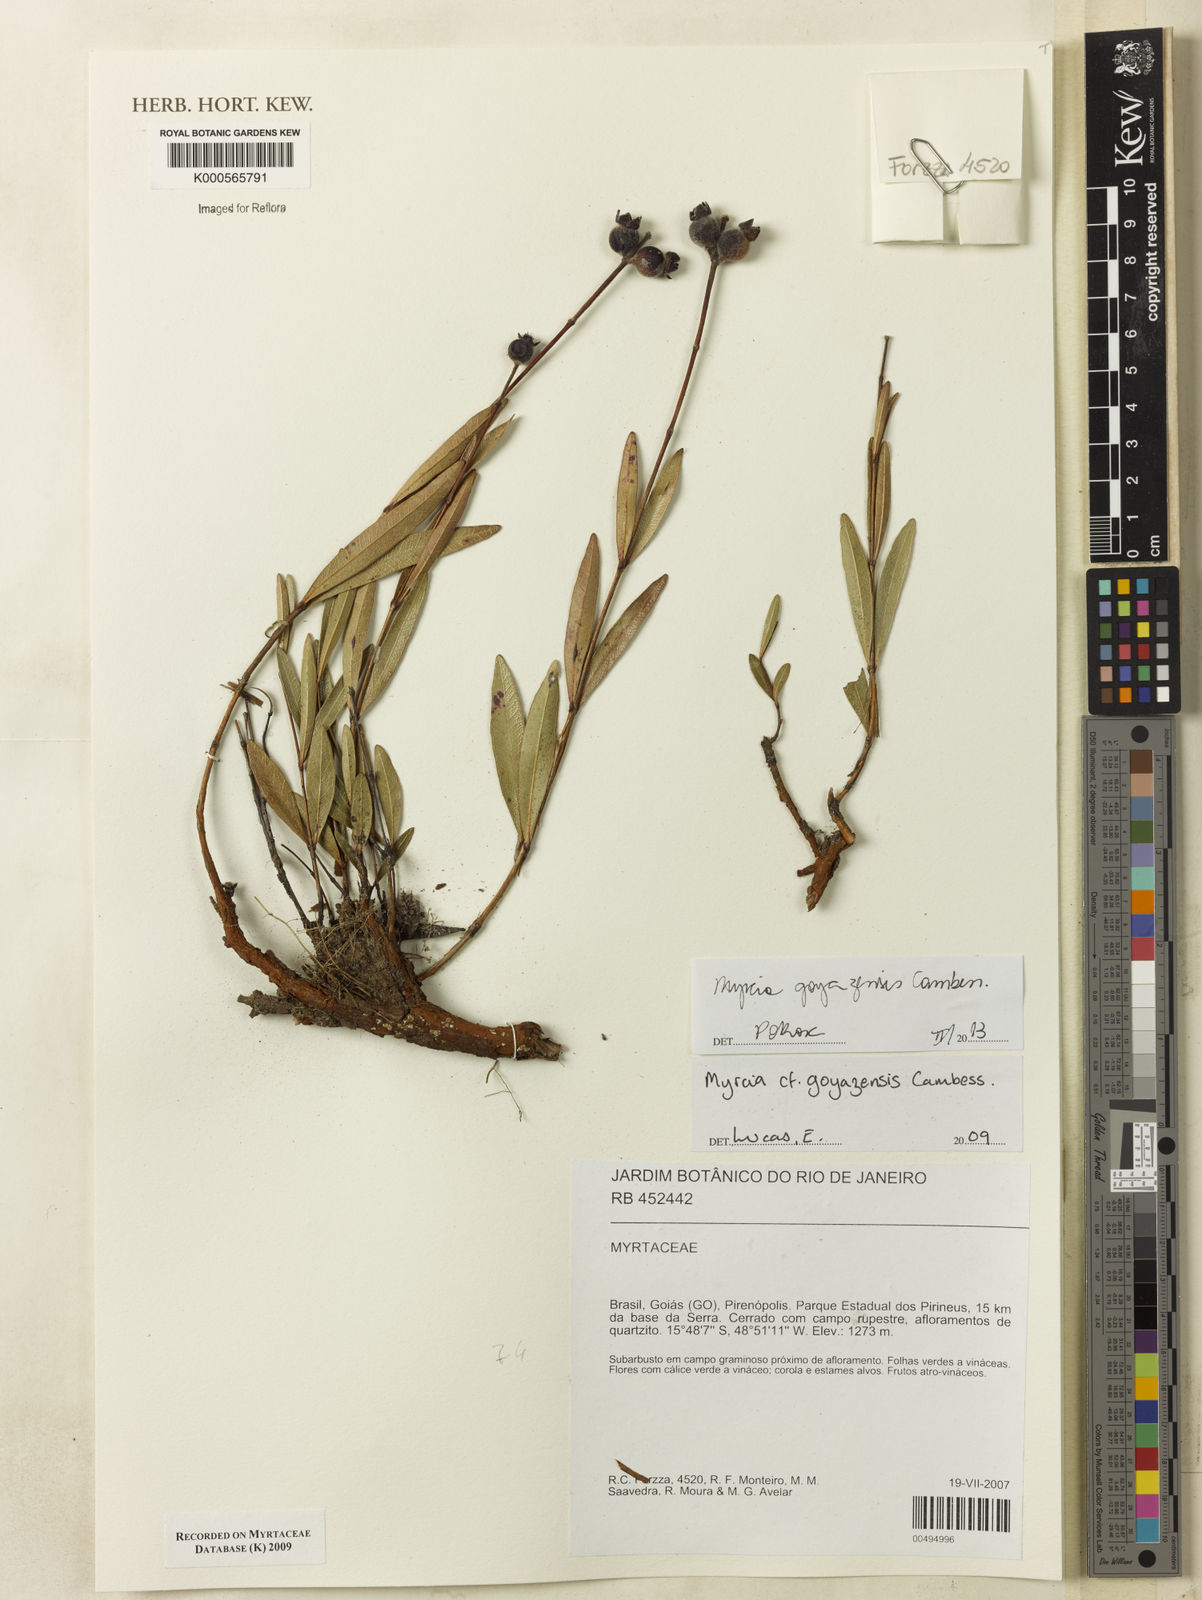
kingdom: Plantae
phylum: Tracheophyta
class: Magnoliopsida
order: Myrtales
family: Myrtaceae
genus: Myrcia
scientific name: Myrcia goyazensis
